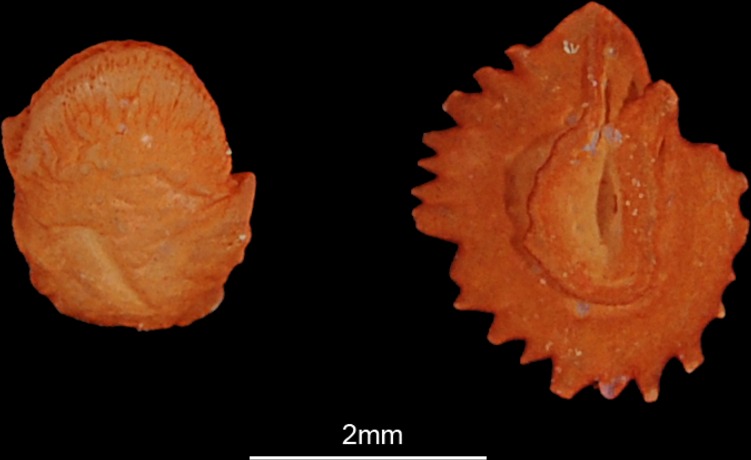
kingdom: Animalia
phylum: Chordata
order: Cypriniformes
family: Cyprinidae
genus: Scardinius
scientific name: Scardinius erythrophthalmus
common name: Rudd
